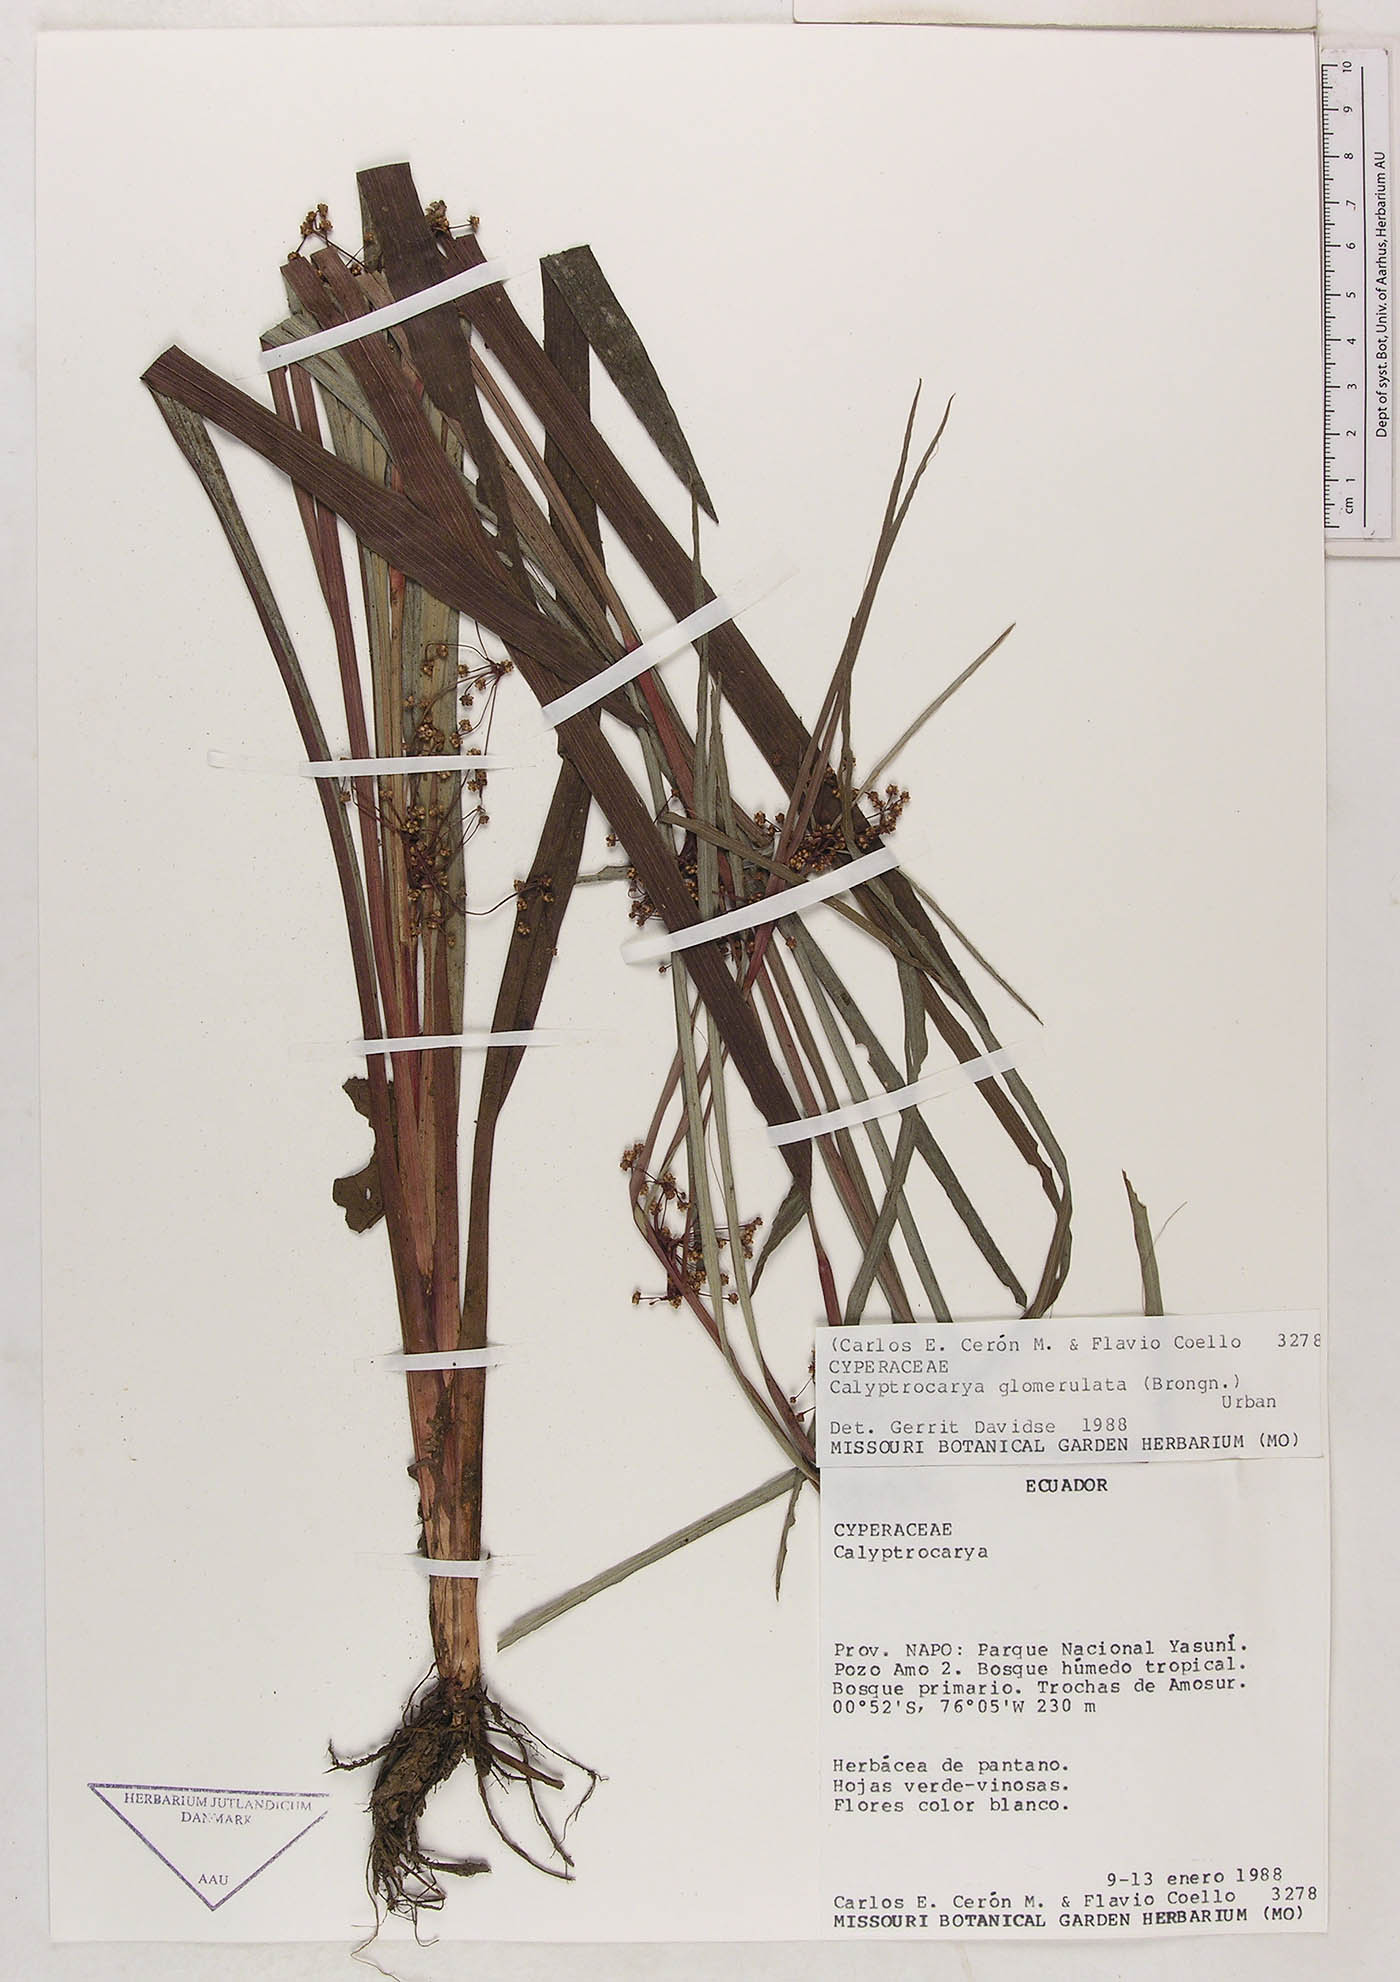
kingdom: Plantae
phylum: Tracheophyta
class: Liliopsida
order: Poales
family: Cyperaceae
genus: Calyptrocarya
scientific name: Calyptrocarya glomerulata
